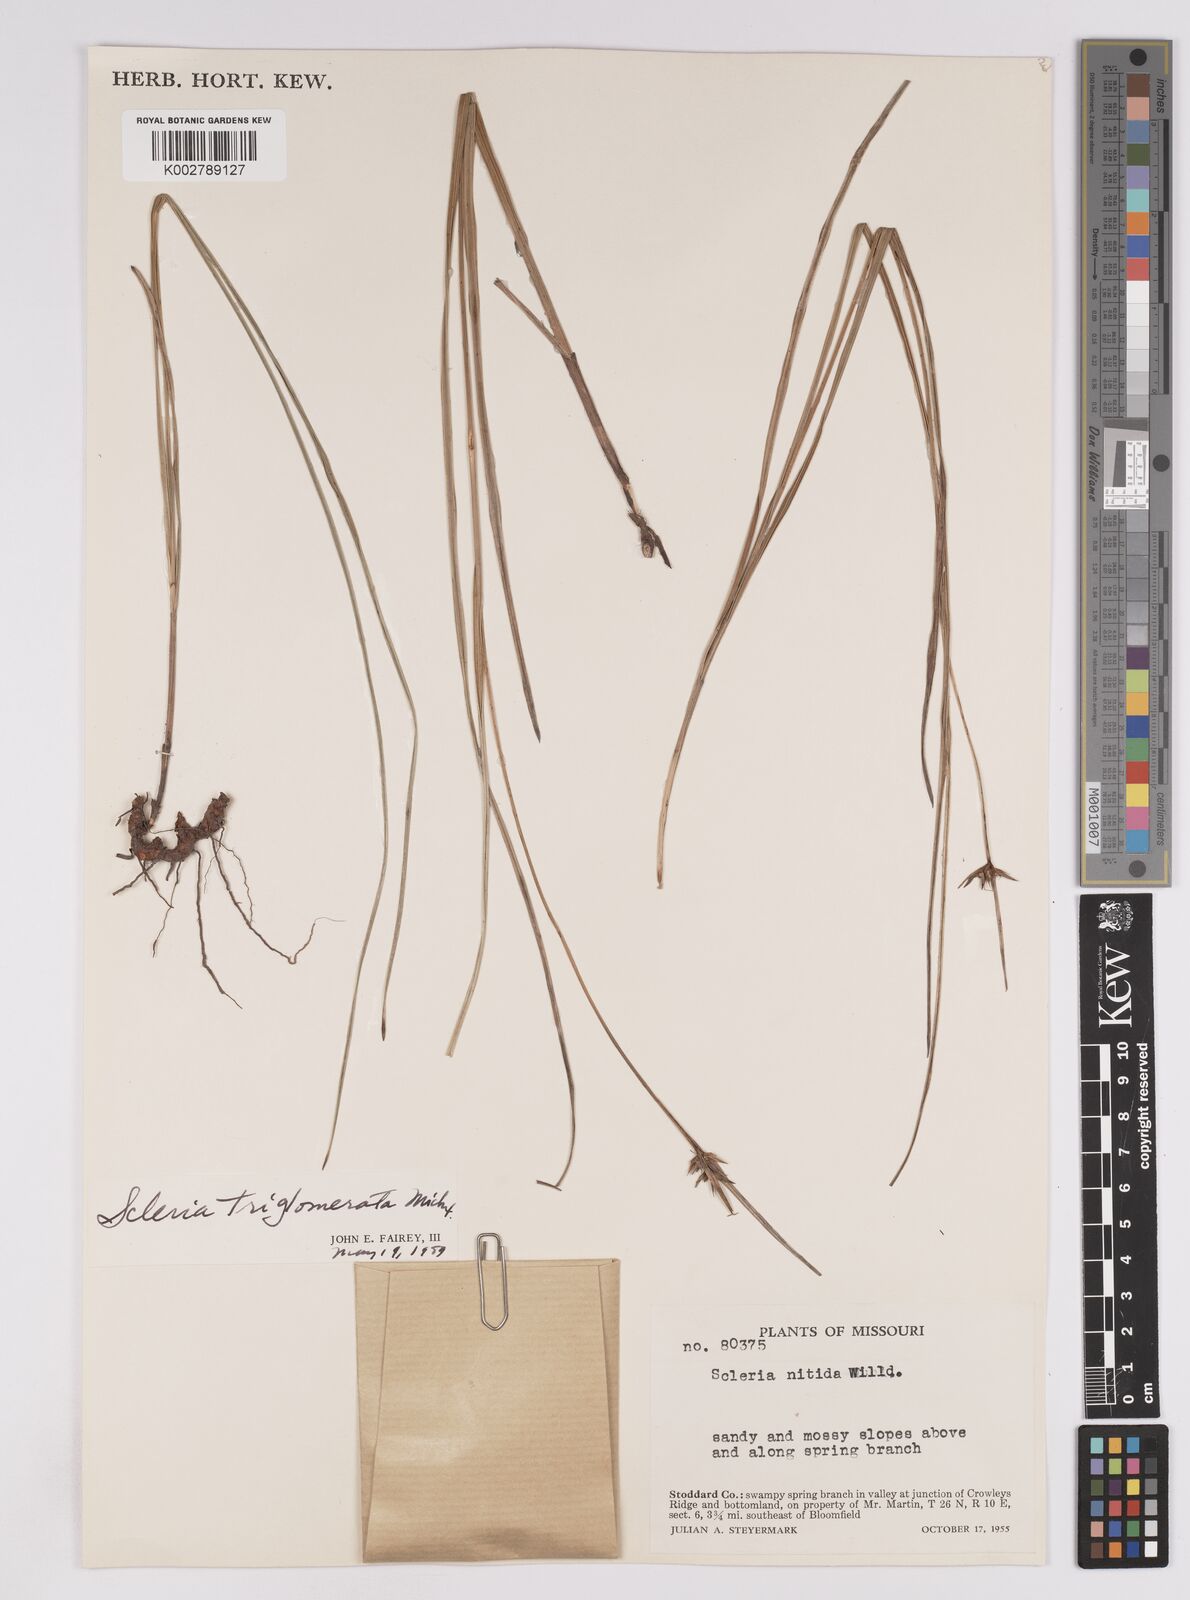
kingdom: Plantae
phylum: Tracheophyta
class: Liliopsida
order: Poales
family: Cyperaceae
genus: Scleria
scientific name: Scleria triglomerata
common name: Whip nutrush
